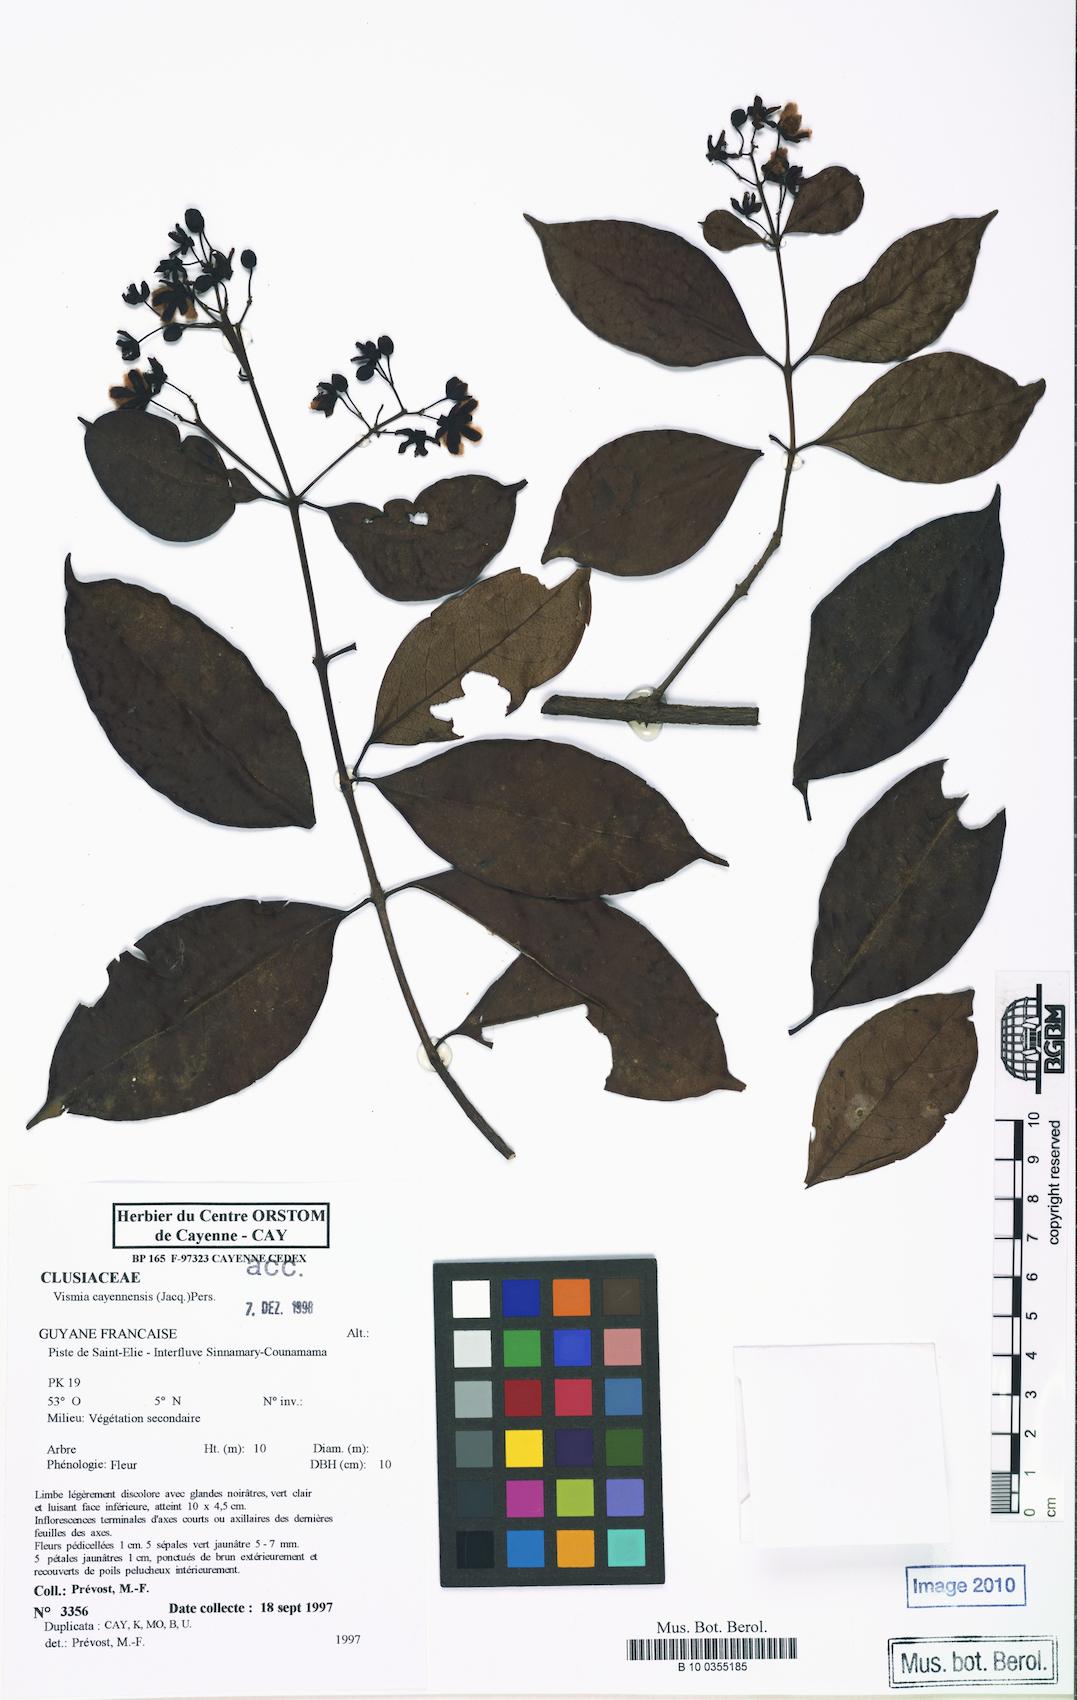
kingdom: Plantae
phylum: Tracheophyta
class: Magnoliopsida
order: Malpighiales
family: Hypericaceae
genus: Vismia
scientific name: Vismia cayennensis
